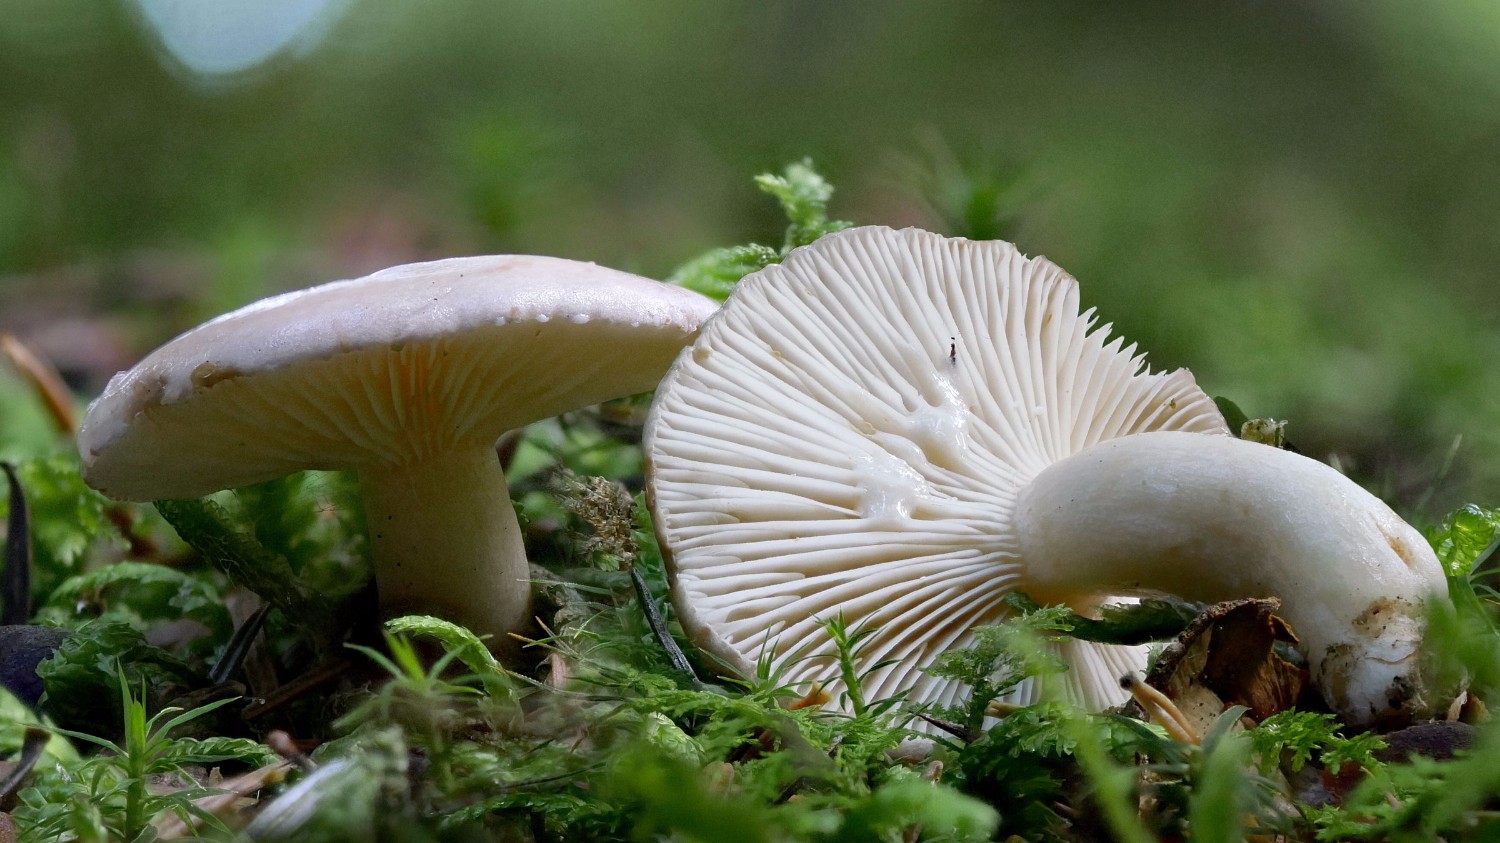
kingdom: Fungi
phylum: Basidiomycota
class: Agaricomycetes
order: Russulales
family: Russulaceae
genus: Lactarius
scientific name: Lactarius albocarneus
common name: ædelgran-mælkehat
